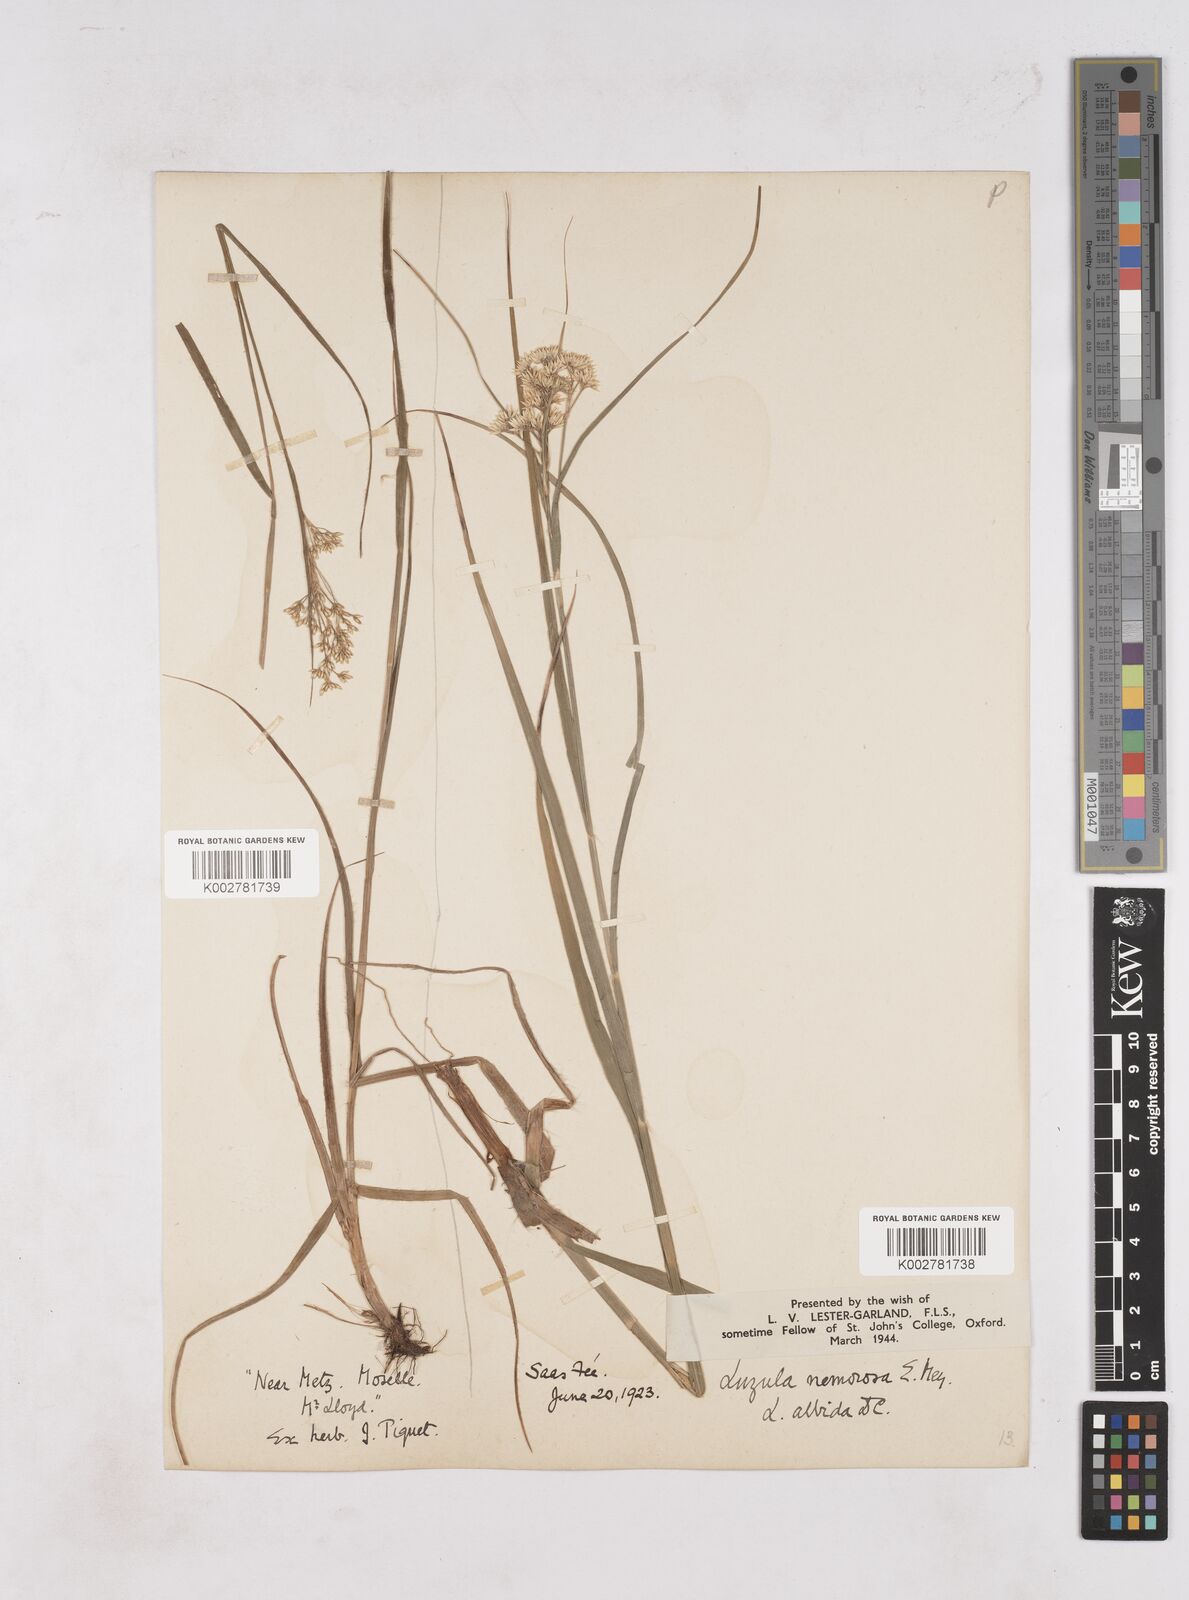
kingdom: Plantae
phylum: Tracheophyta
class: Liliopsida
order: Poales
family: Juncaceae
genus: Luzula
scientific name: Luzula luzuloides
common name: White wood-rush
